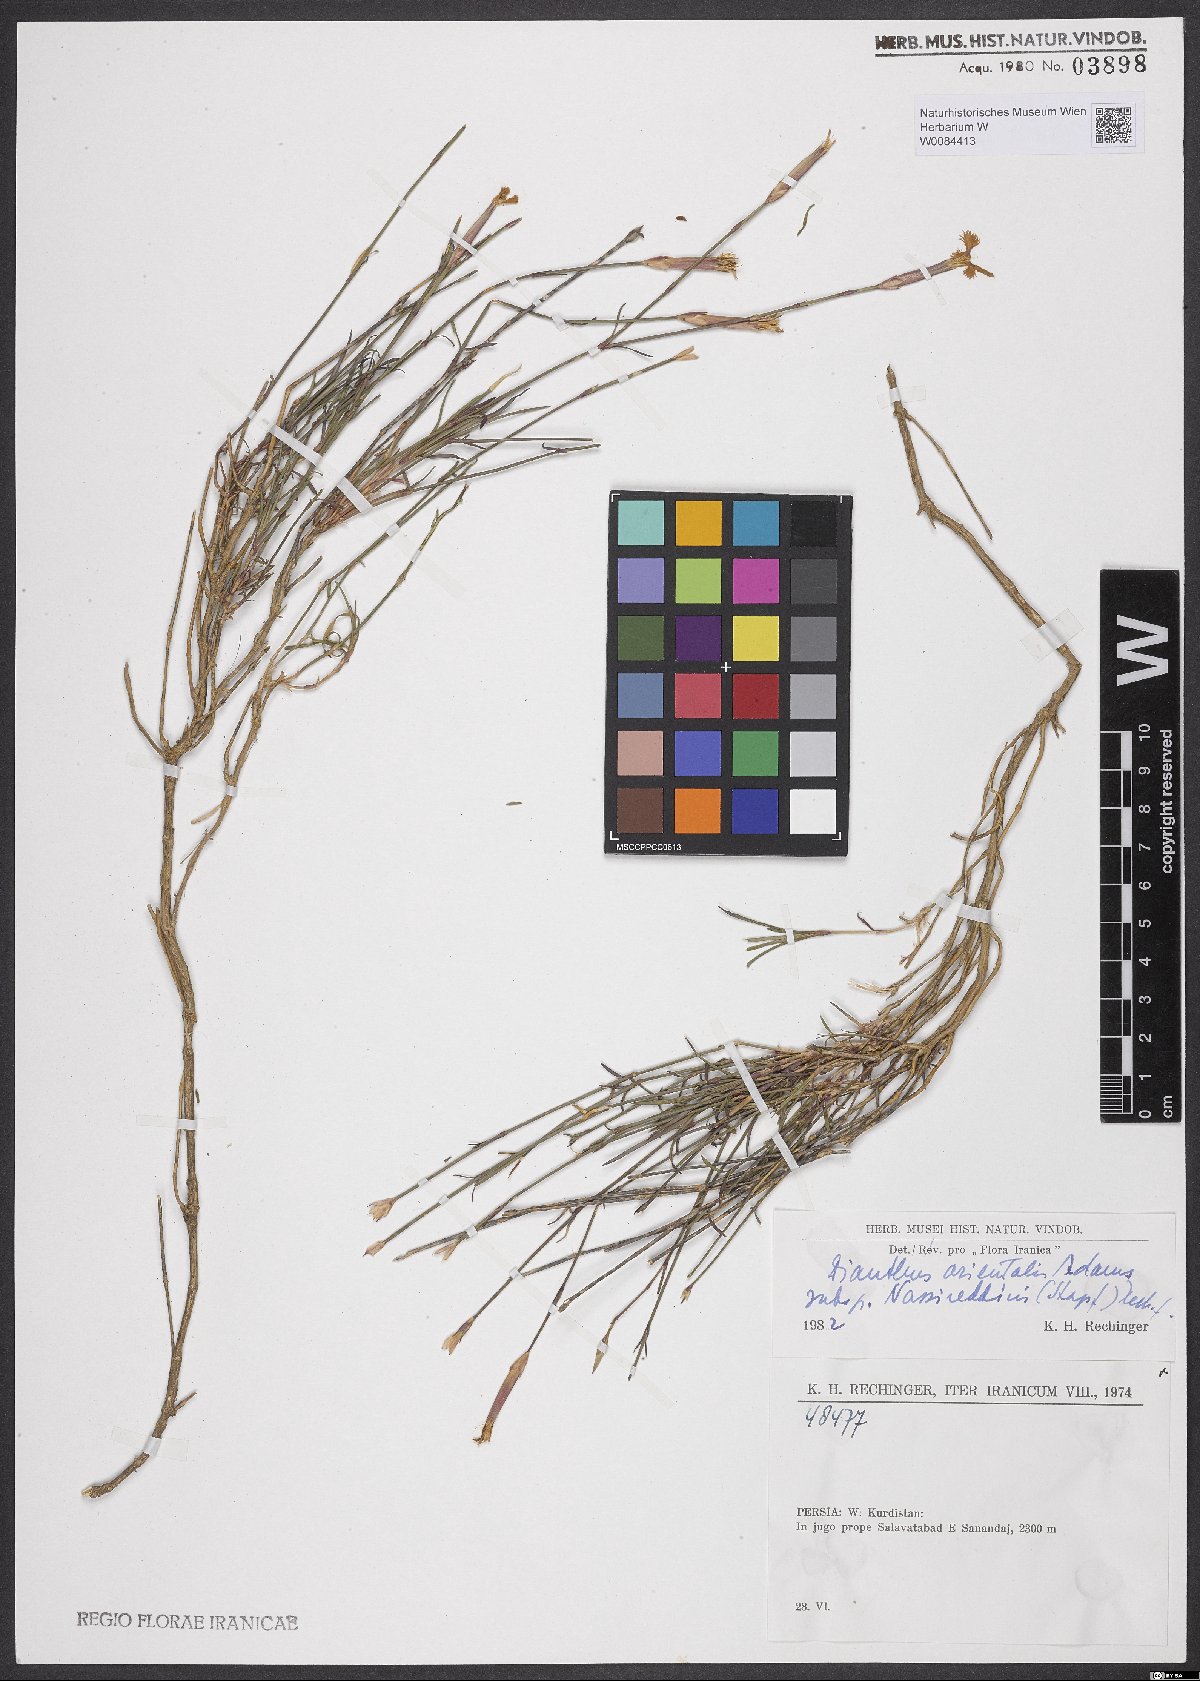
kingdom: Plantae
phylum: Tracheophyta
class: Magnoliopsida
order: Caryophyllales
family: Caryophyllaceae
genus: Dianthus
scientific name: Dianthus orientalis
